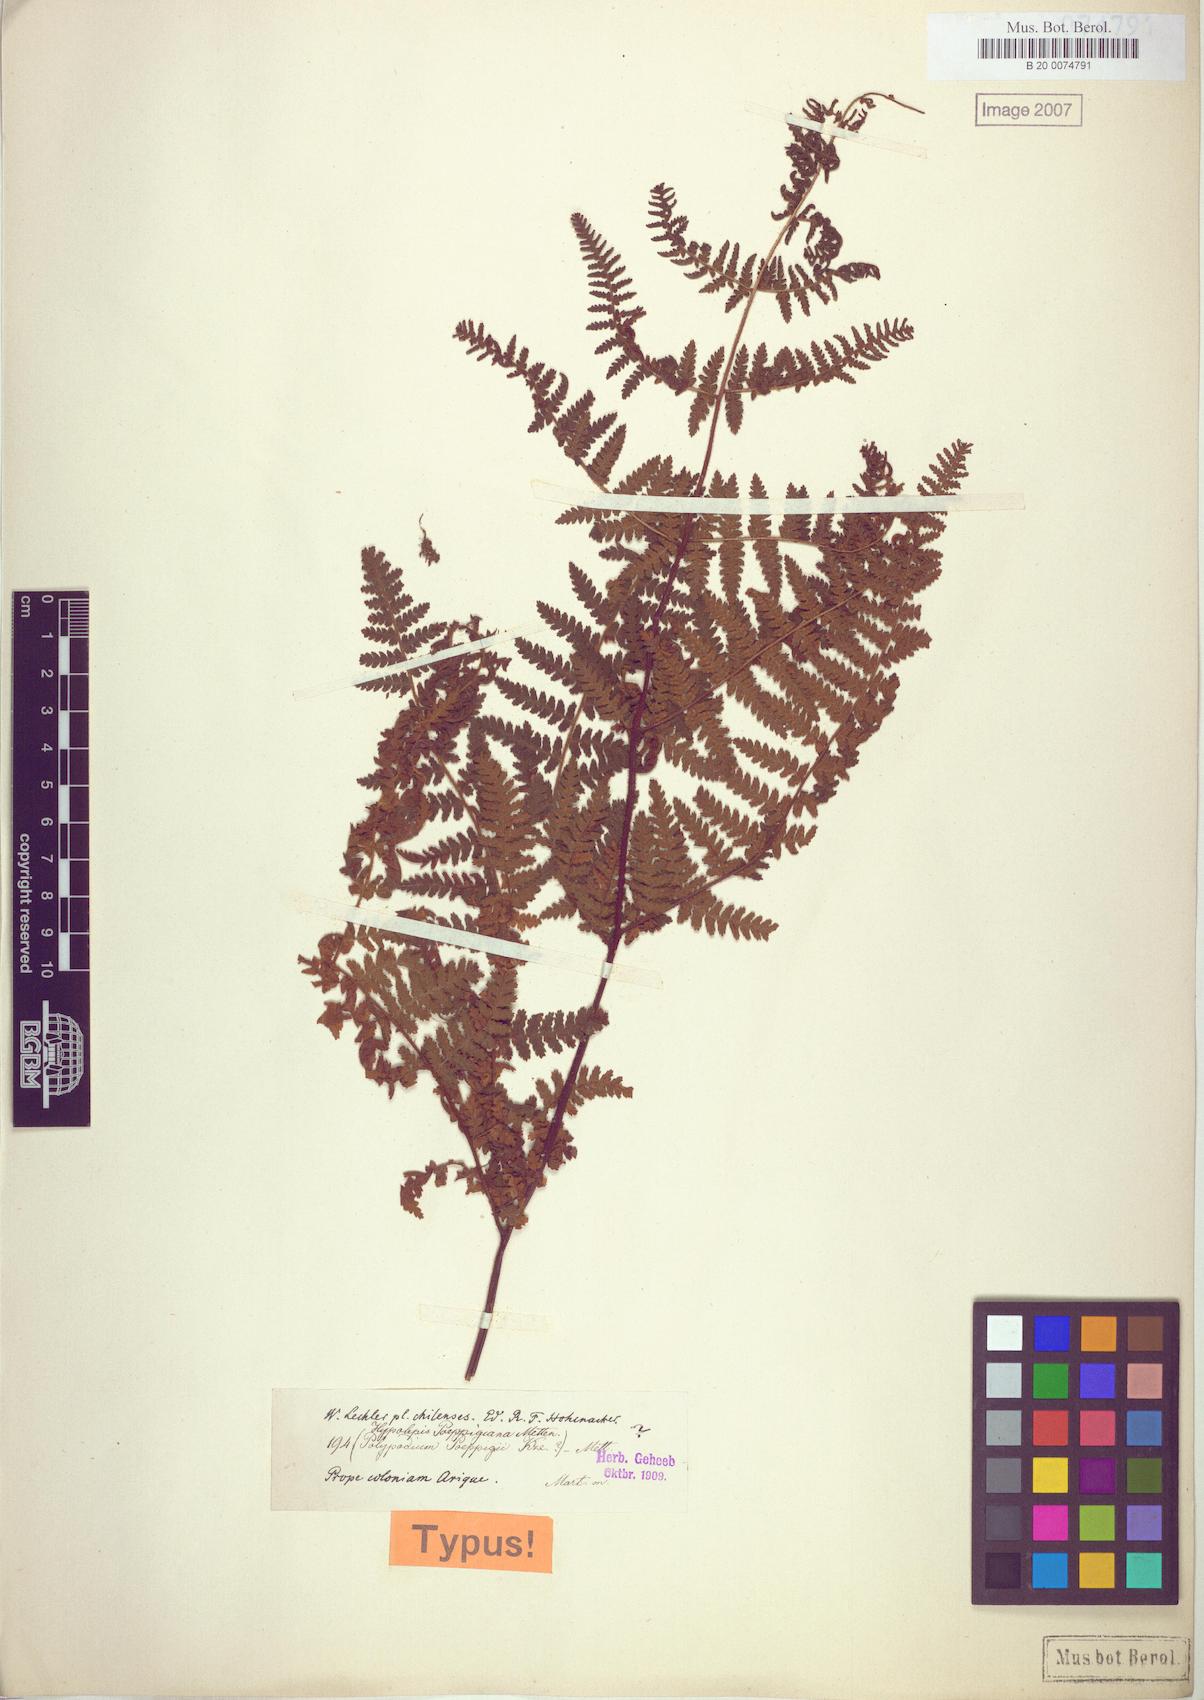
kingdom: Plantae
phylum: Tracheophyta
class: Polypodiopsida
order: Polypodiales
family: Dennstaedtiaceae
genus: Hypolepis
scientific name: Hypolepis rugosula
